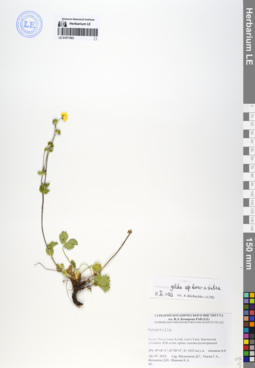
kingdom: Plantae
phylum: Tracheophyta
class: Magnoliopsida
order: Rosales
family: Rosaceae
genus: Potentilla
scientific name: Potentilla crantzii
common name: Alpine cinquefoil
